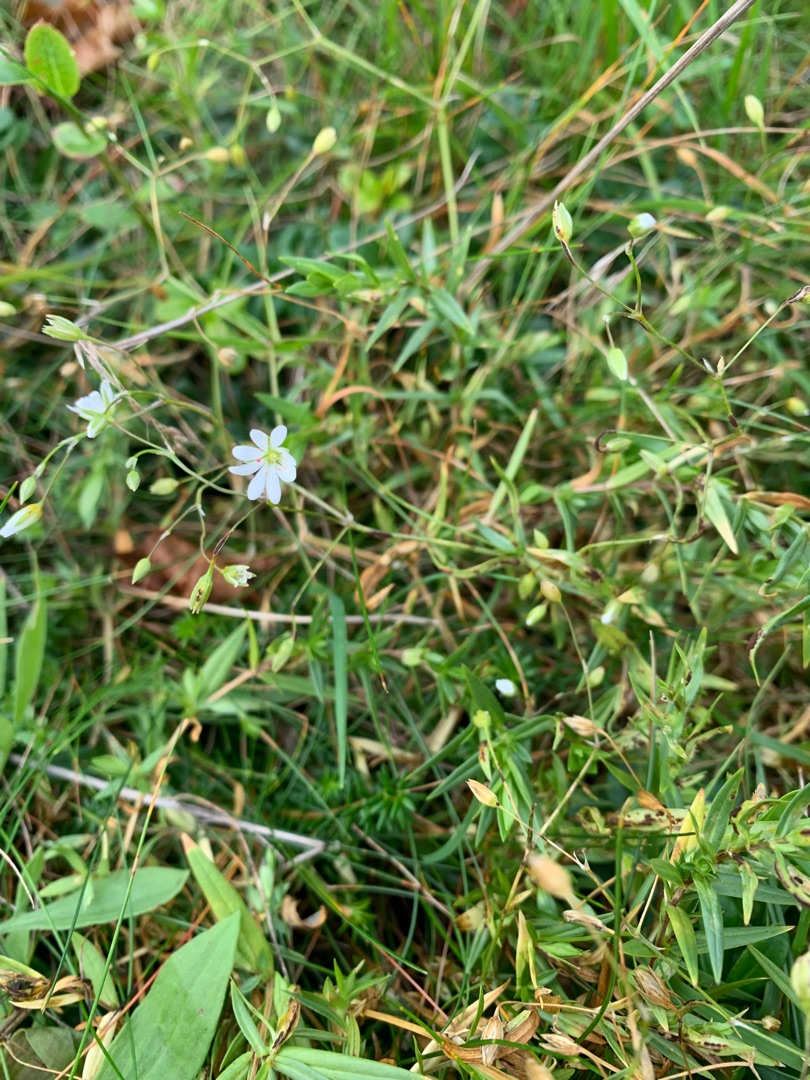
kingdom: Plantae
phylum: Tracheophyta
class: Magnoliopsida
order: Caryophyllales
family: Caryophyllaceae
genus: Stellaria
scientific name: Stellaria graminea
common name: Græsbladet fladstjerne
